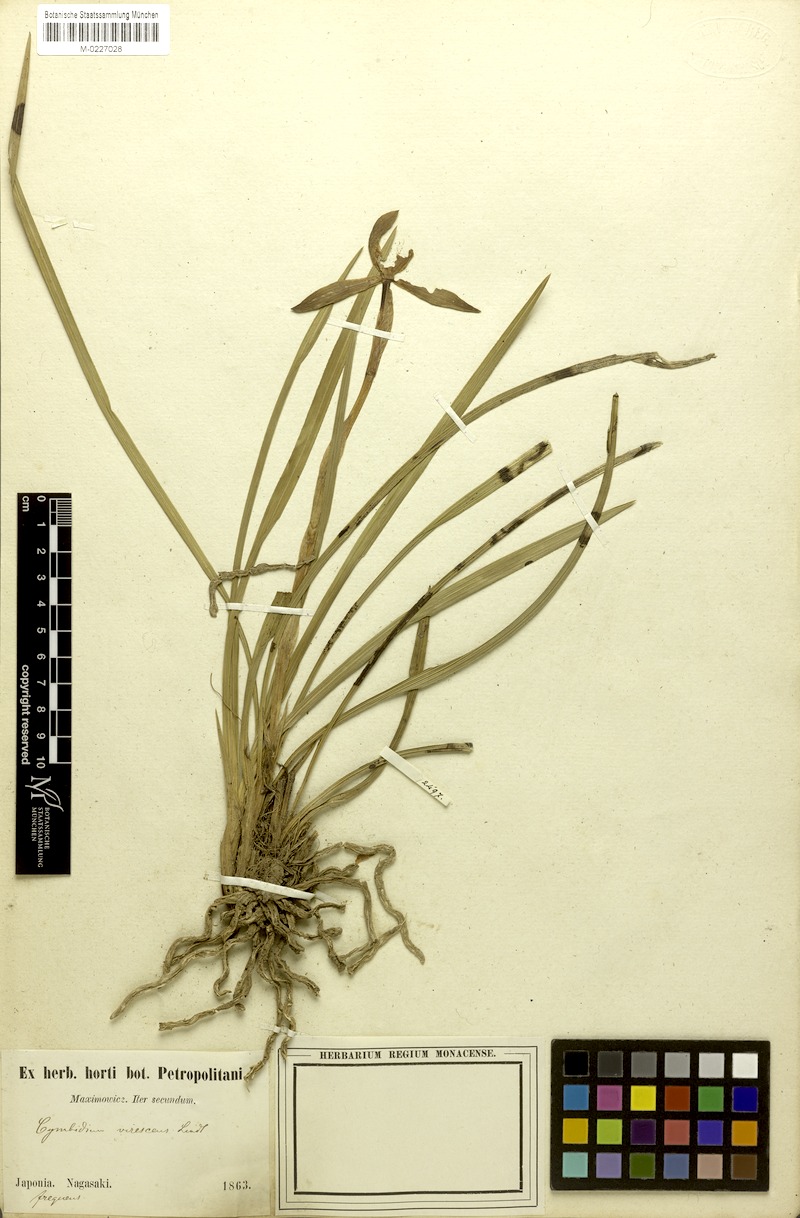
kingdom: Plantae
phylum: Tracheophyta
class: Liliopsida
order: Asparagales
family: Orchidaceae
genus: Cymbidium
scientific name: Cymbidium goeringii
